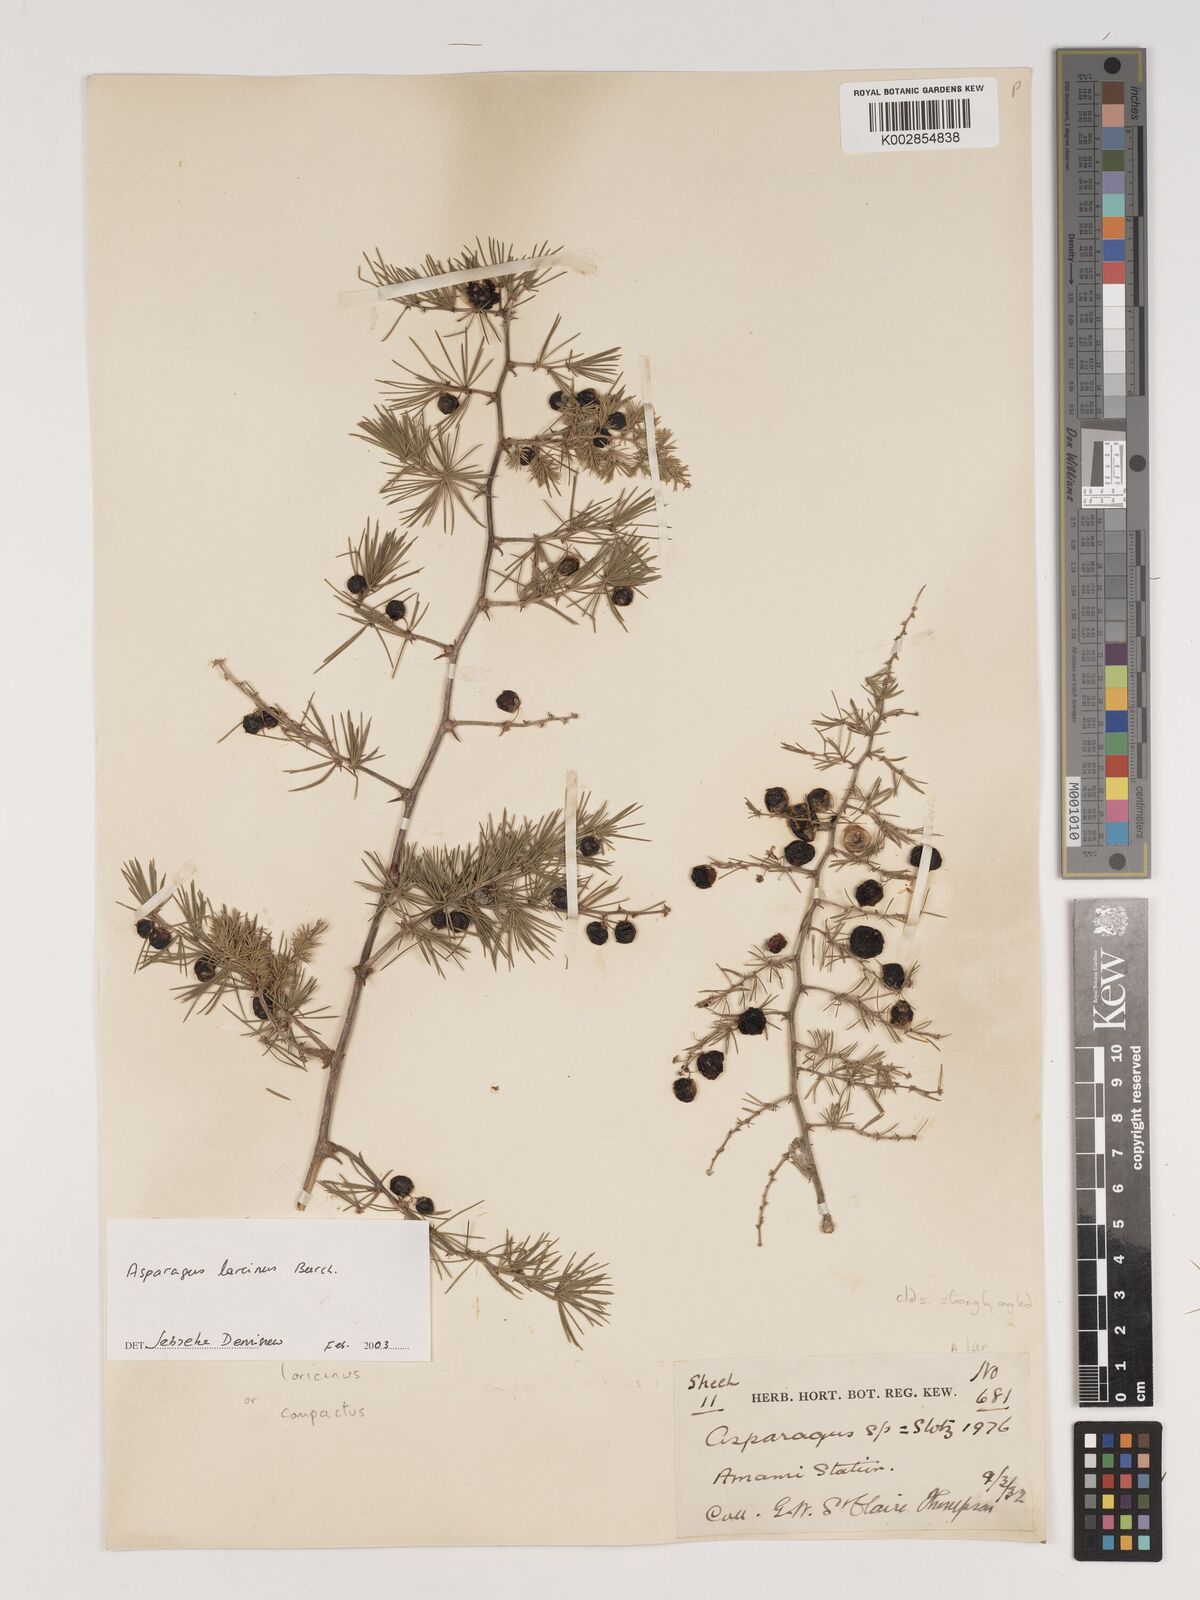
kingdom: Plantae
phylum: Tracheophyta
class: Liliopsida
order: Asparagales
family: Asparagaceae
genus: Asparagus
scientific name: Asparagus laricinus
